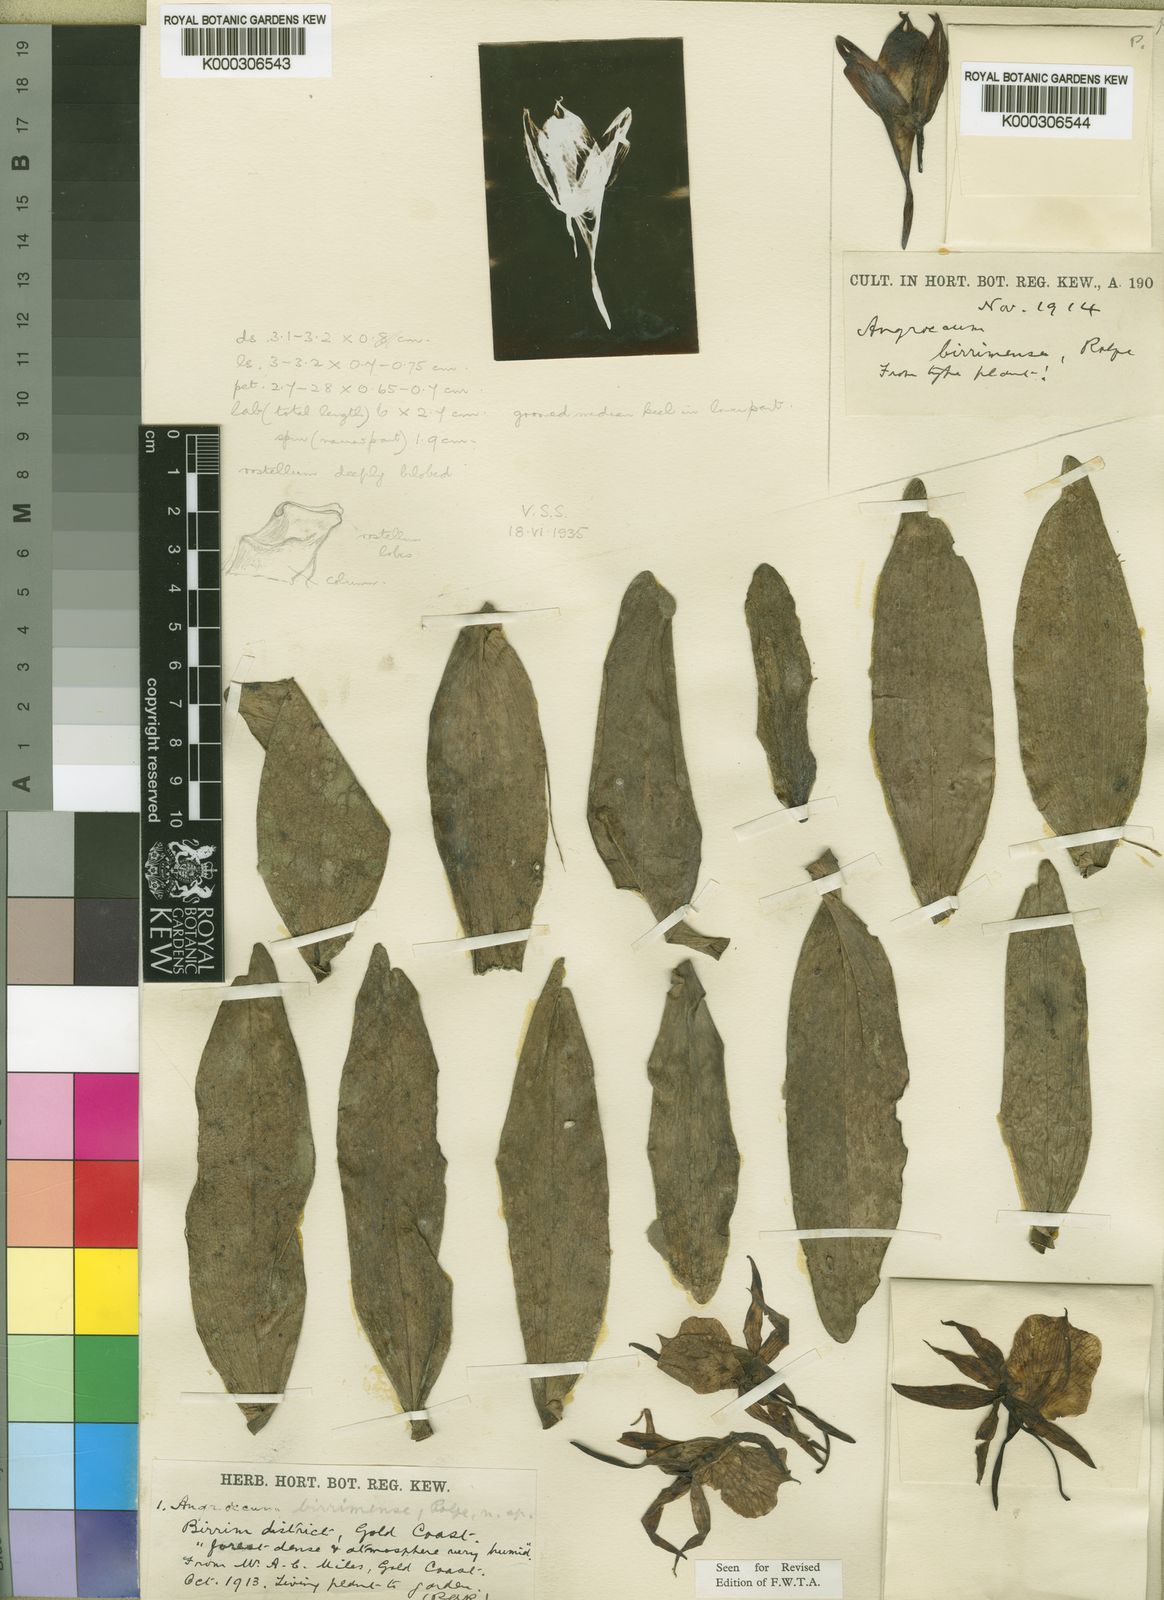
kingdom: Plantae
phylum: Tracheophyta
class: Liliopsida
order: Asparagales
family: Orchidaceae
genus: Angraecum
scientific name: Angraecum birrimense
